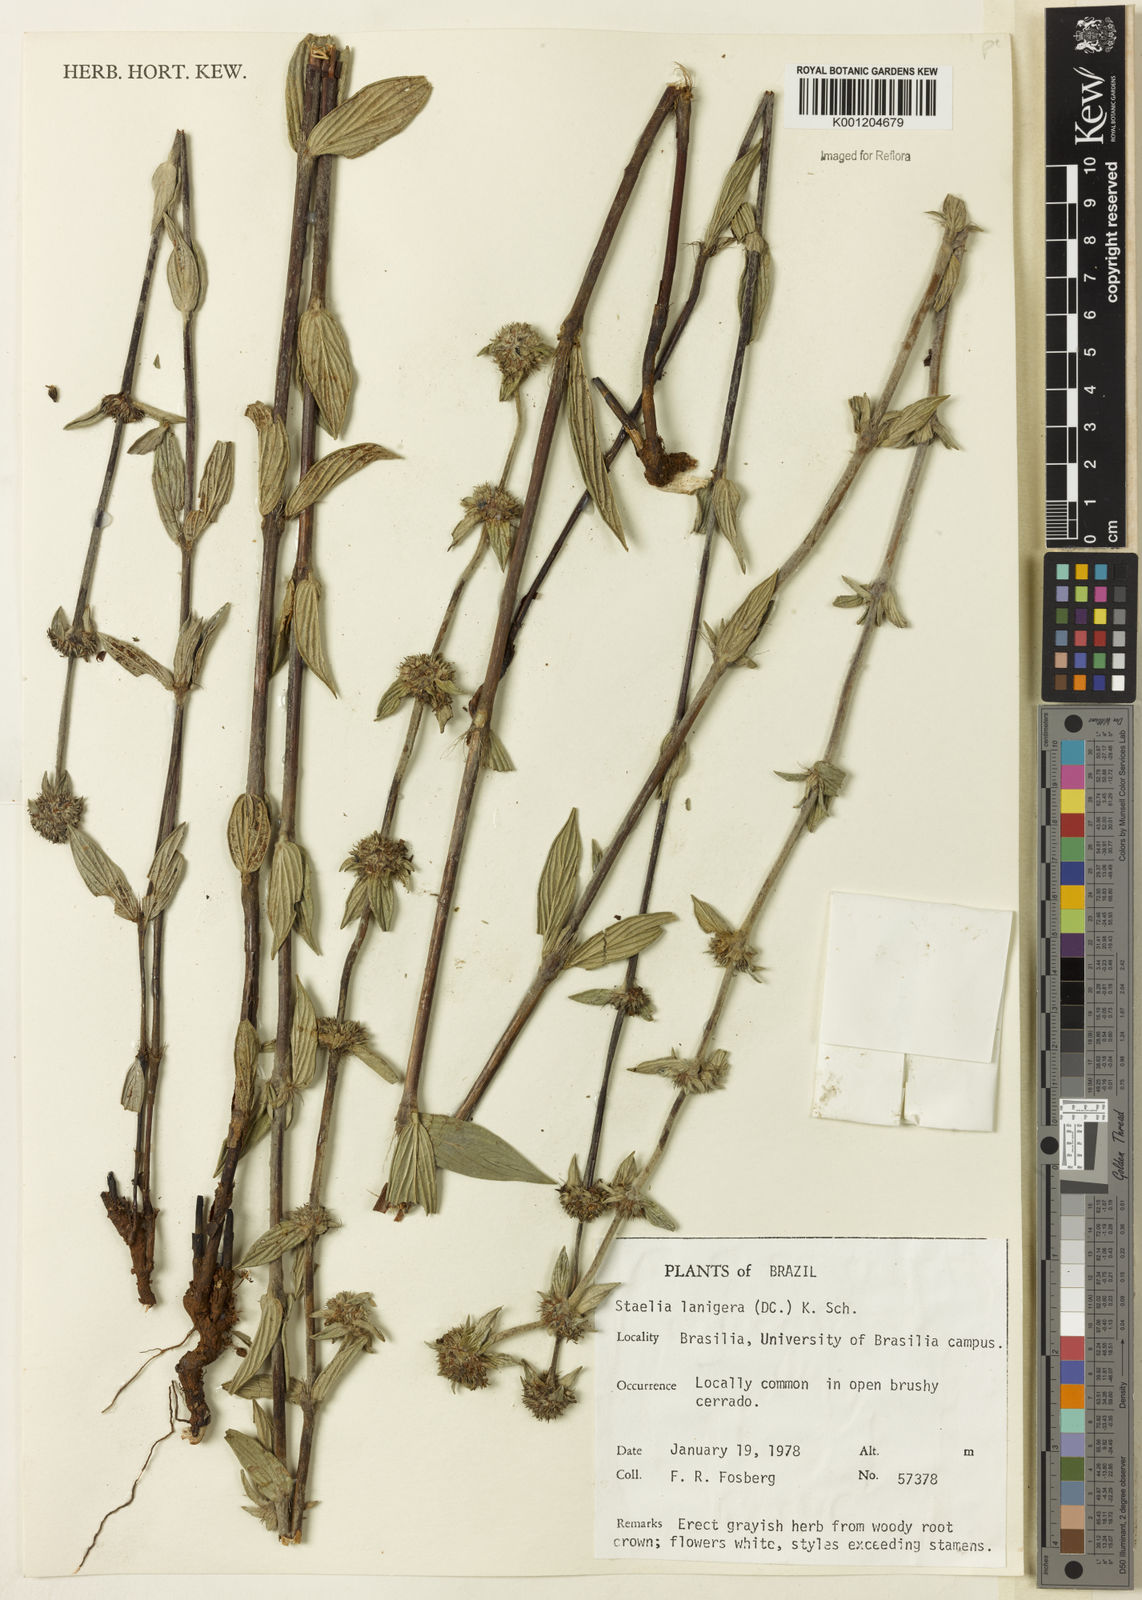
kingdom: Plantae
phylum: Tracheophyta
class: Magnoliopsida
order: Gentianales
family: Rubiaceae
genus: Planaltina
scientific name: Planaltina capitata
